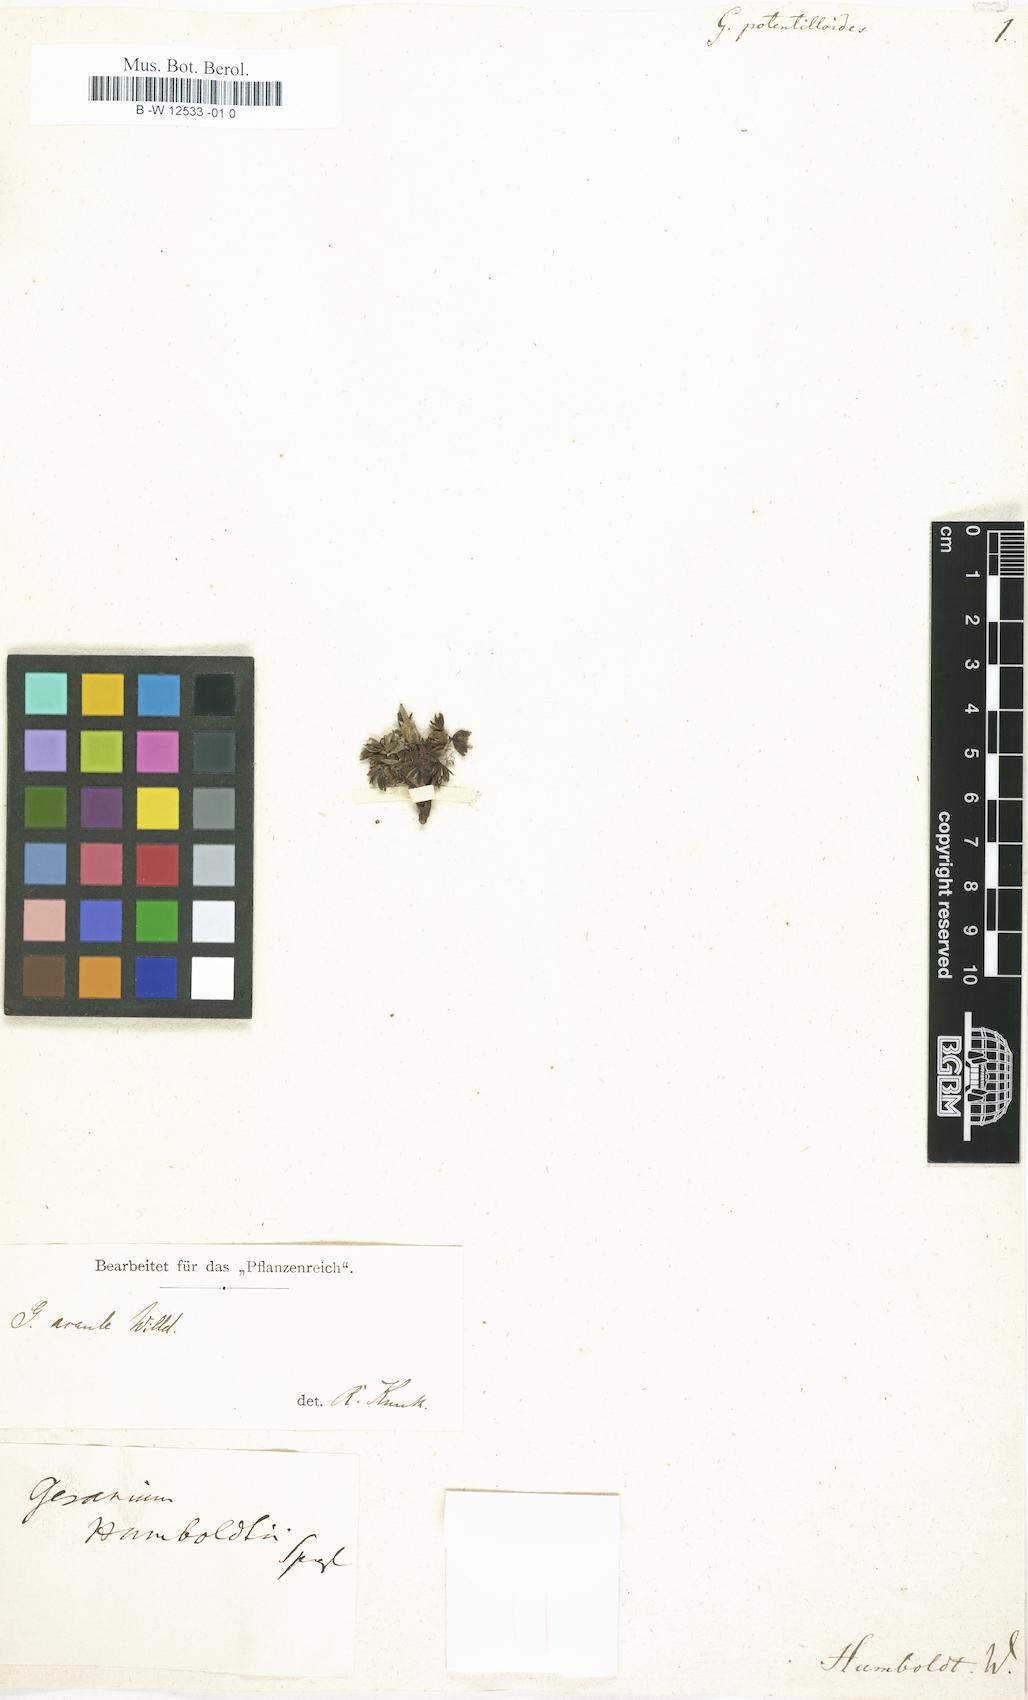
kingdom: Plantae
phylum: Tracheophyta
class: Magnoliopsida
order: Geraniales
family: Geraniaceae
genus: Geranium
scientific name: Geranium potentilloides
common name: Cinquefoil geranium
